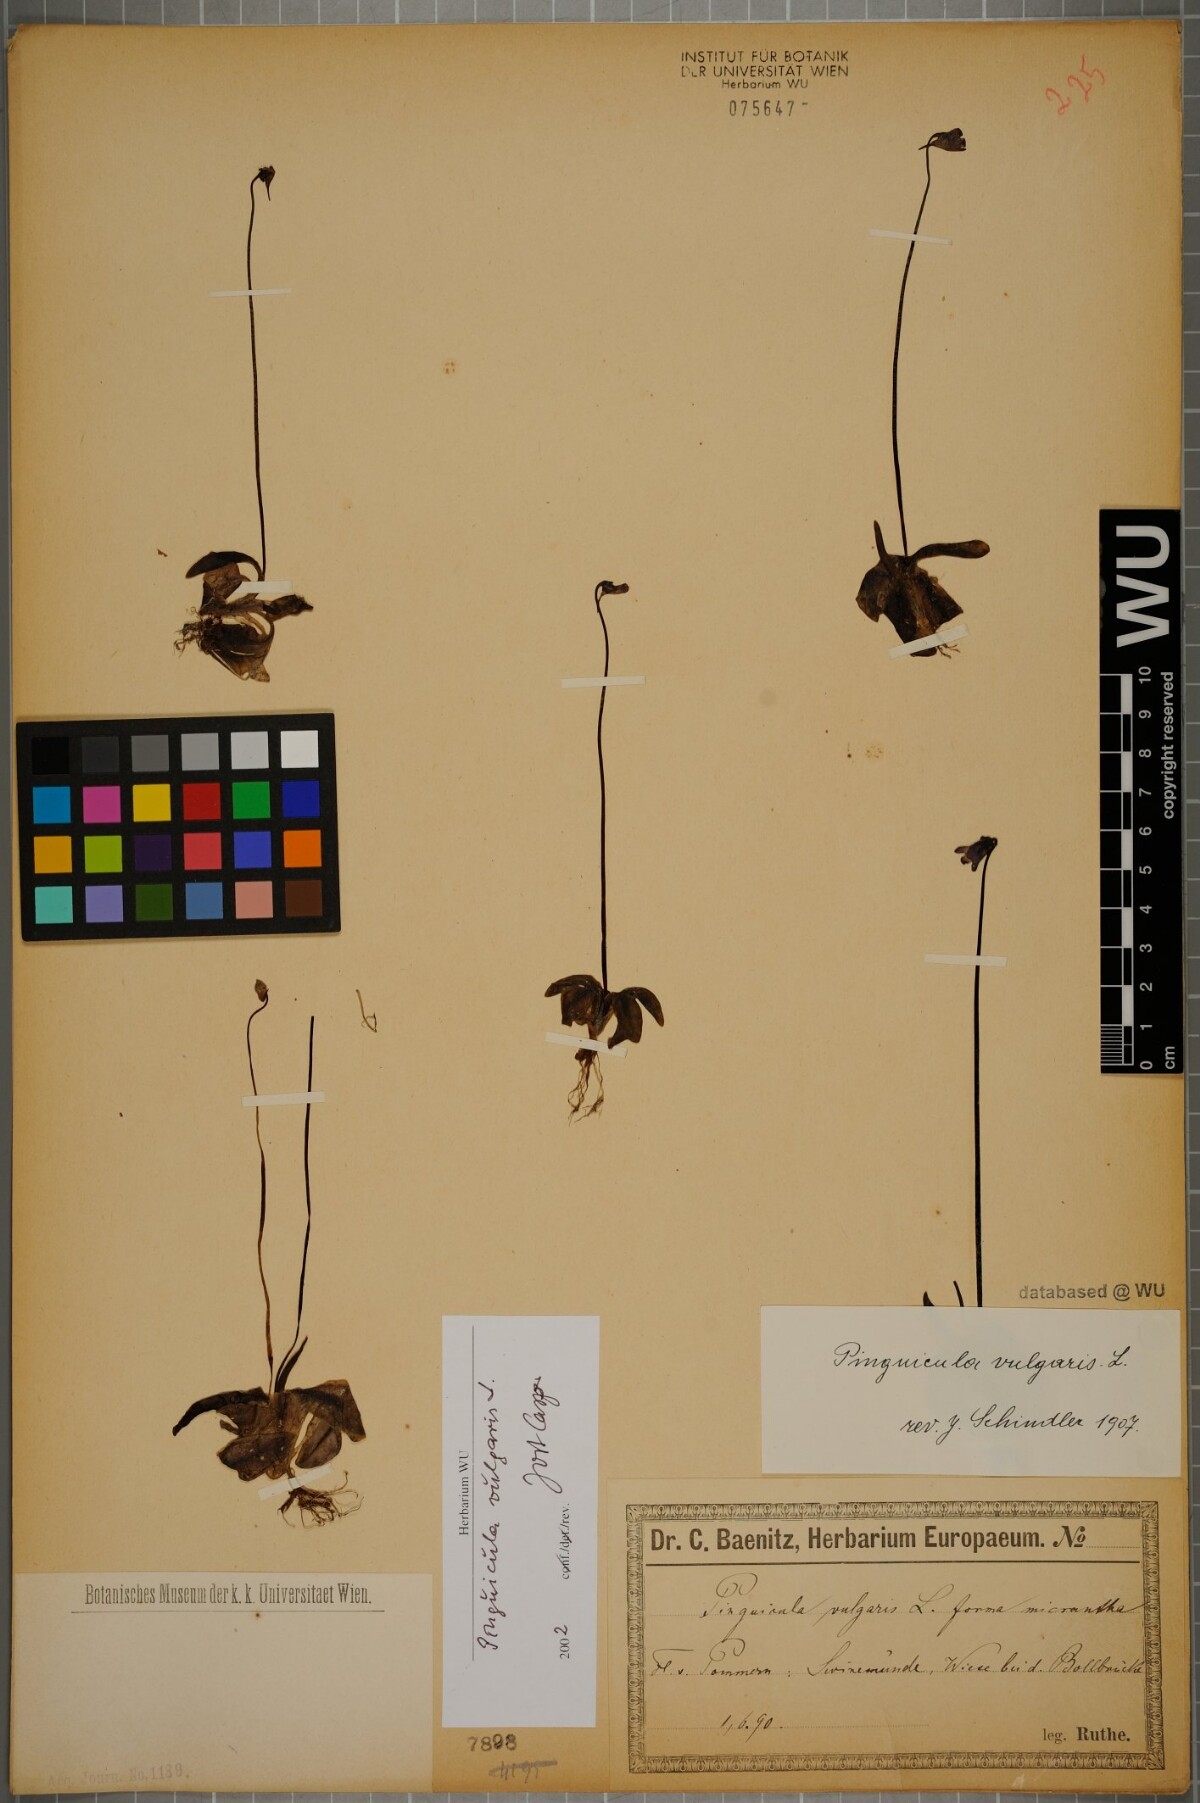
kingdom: Plantae
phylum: Tracheophyta
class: Magnoliopsida
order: Lamiales
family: Lentibulariaceae
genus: Pinguicula
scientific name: Pinguicula vulgaris
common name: Common butterwort
